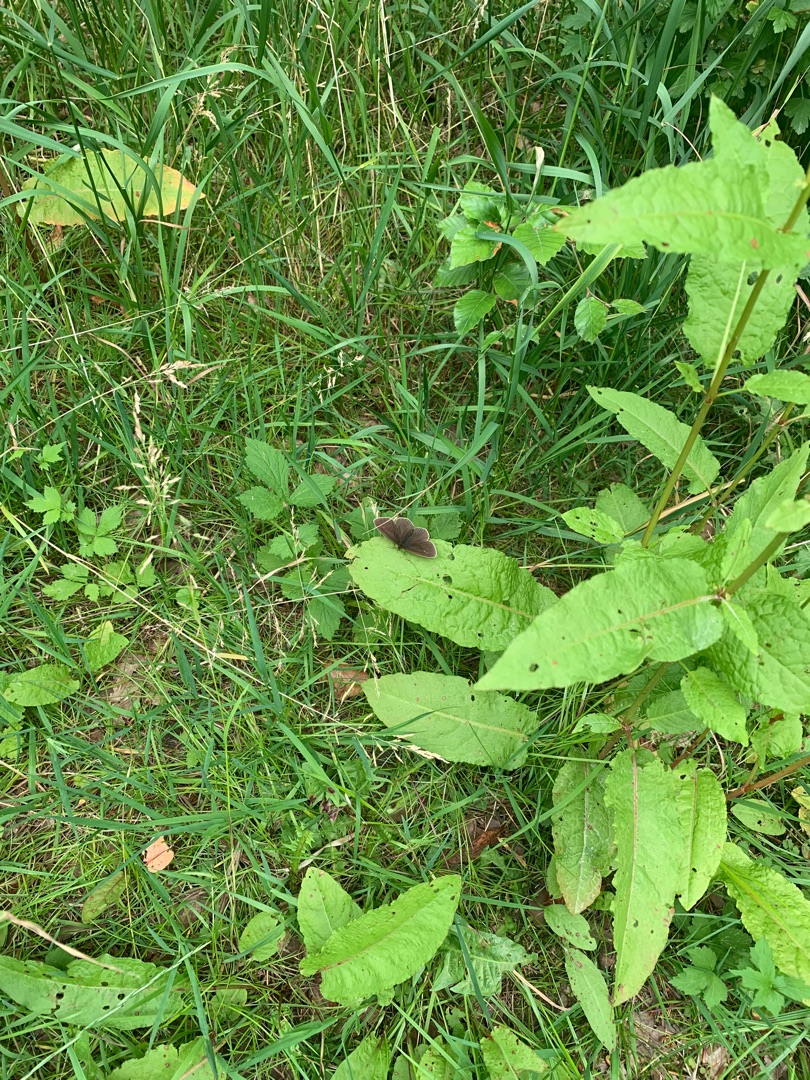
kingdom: Animalia
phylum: Arthropoda
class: Insecta
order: Lepidoptera
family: Nymphalidae
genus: Aphantopus
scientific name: Aphantopus hyperantus
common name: Engrandøje
